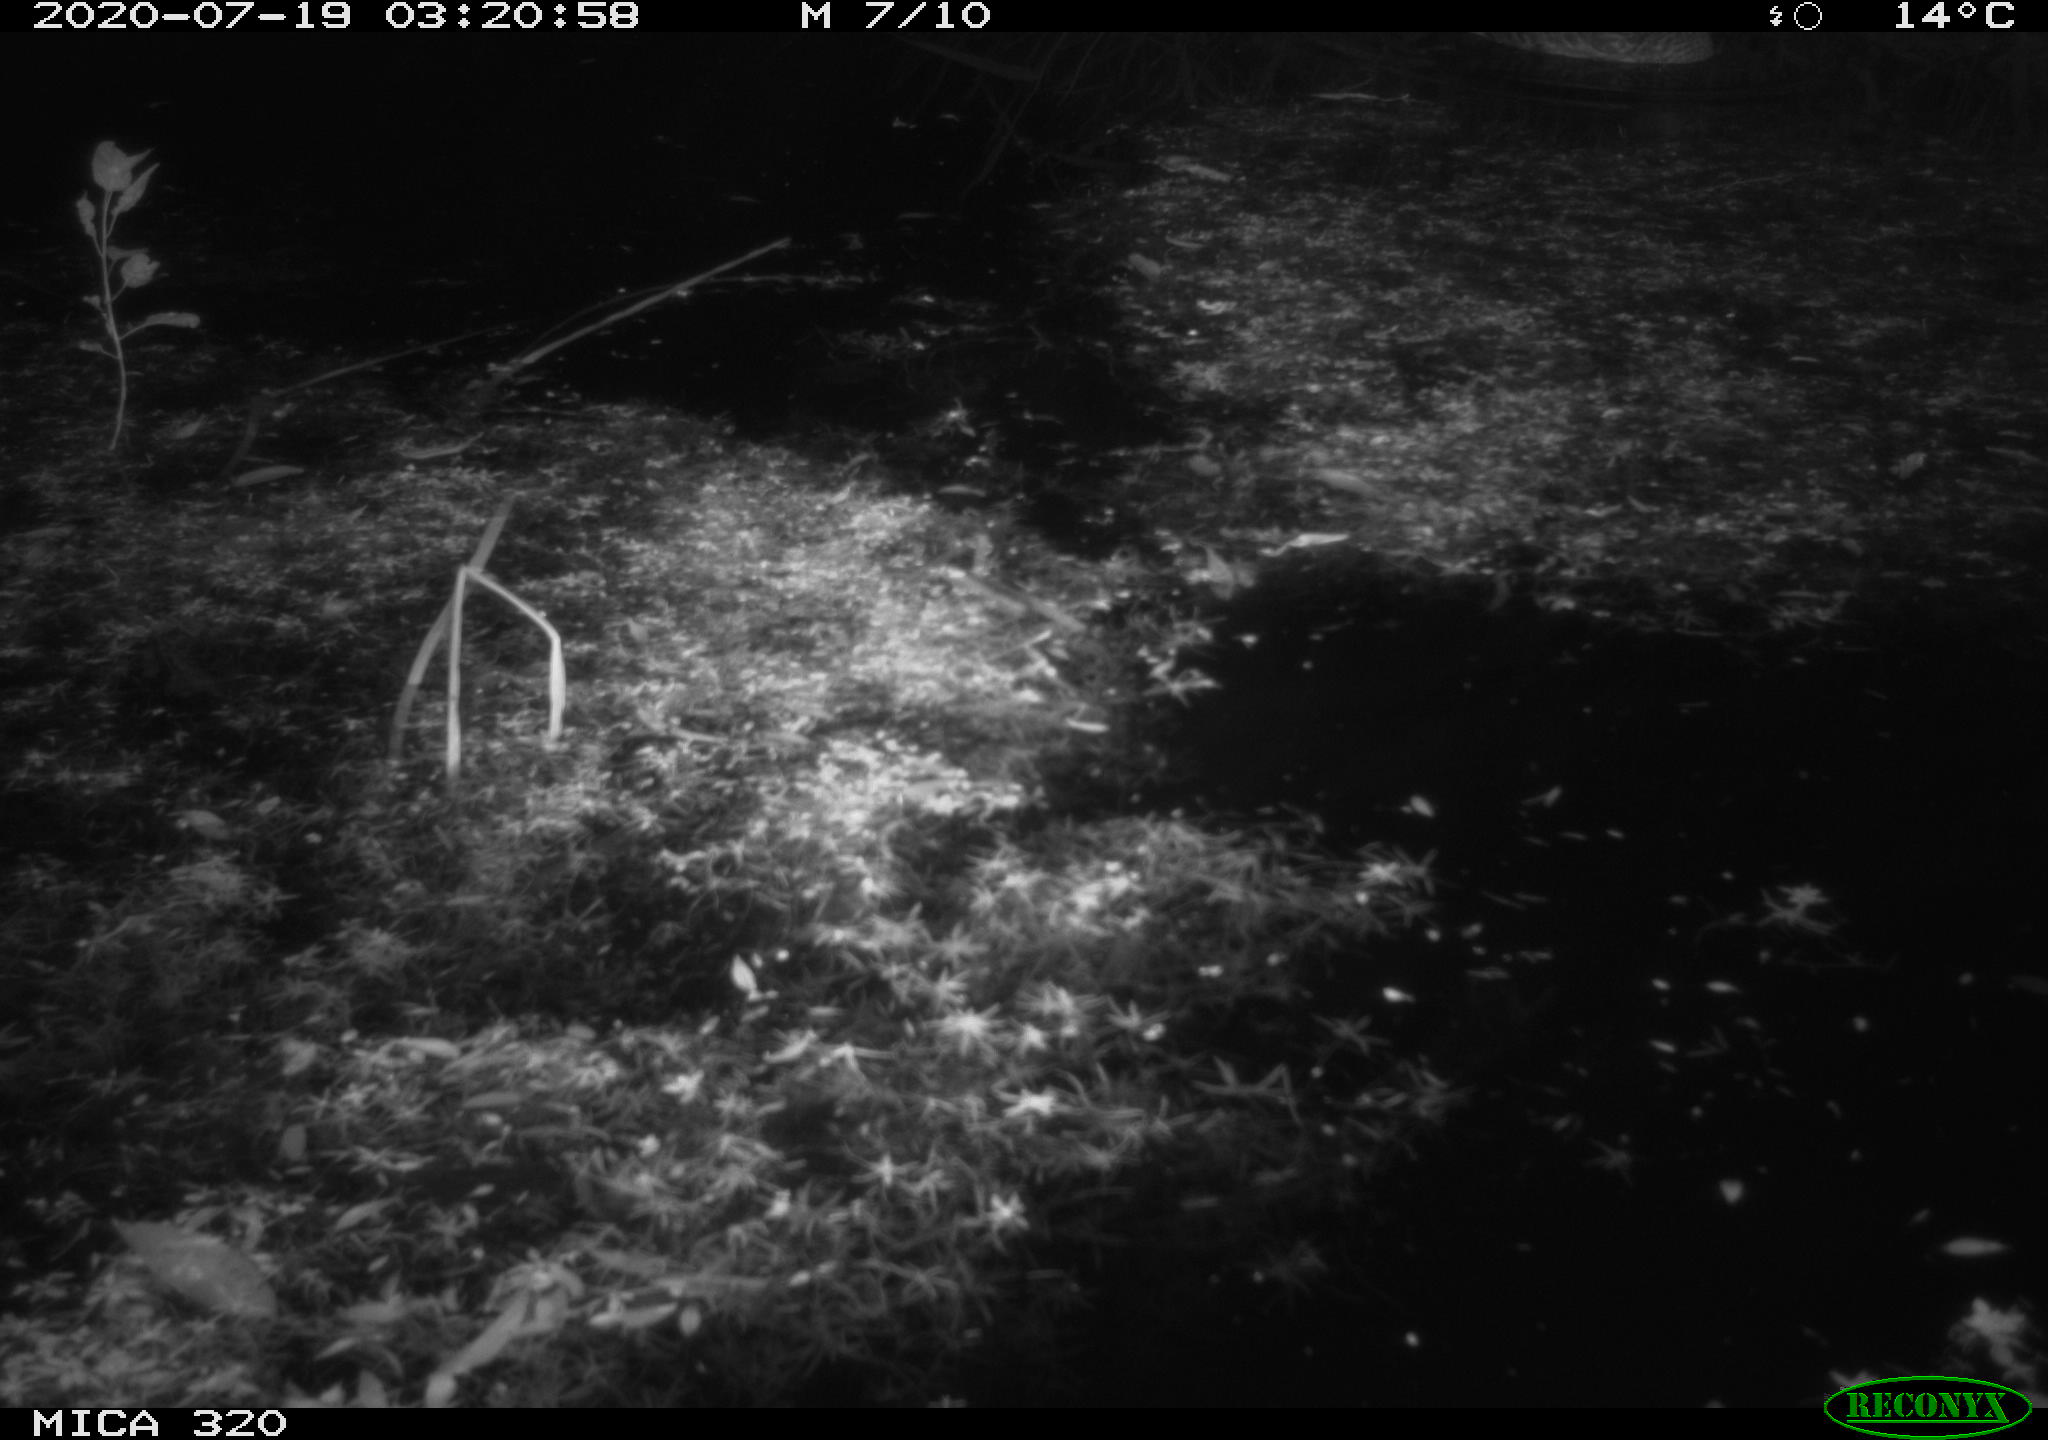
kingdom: Animalia
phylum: Chordata
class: Aves
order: Anseriformes
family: Anatidae
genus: Anas
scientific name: Anas platyrhynchos
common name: Mallard
